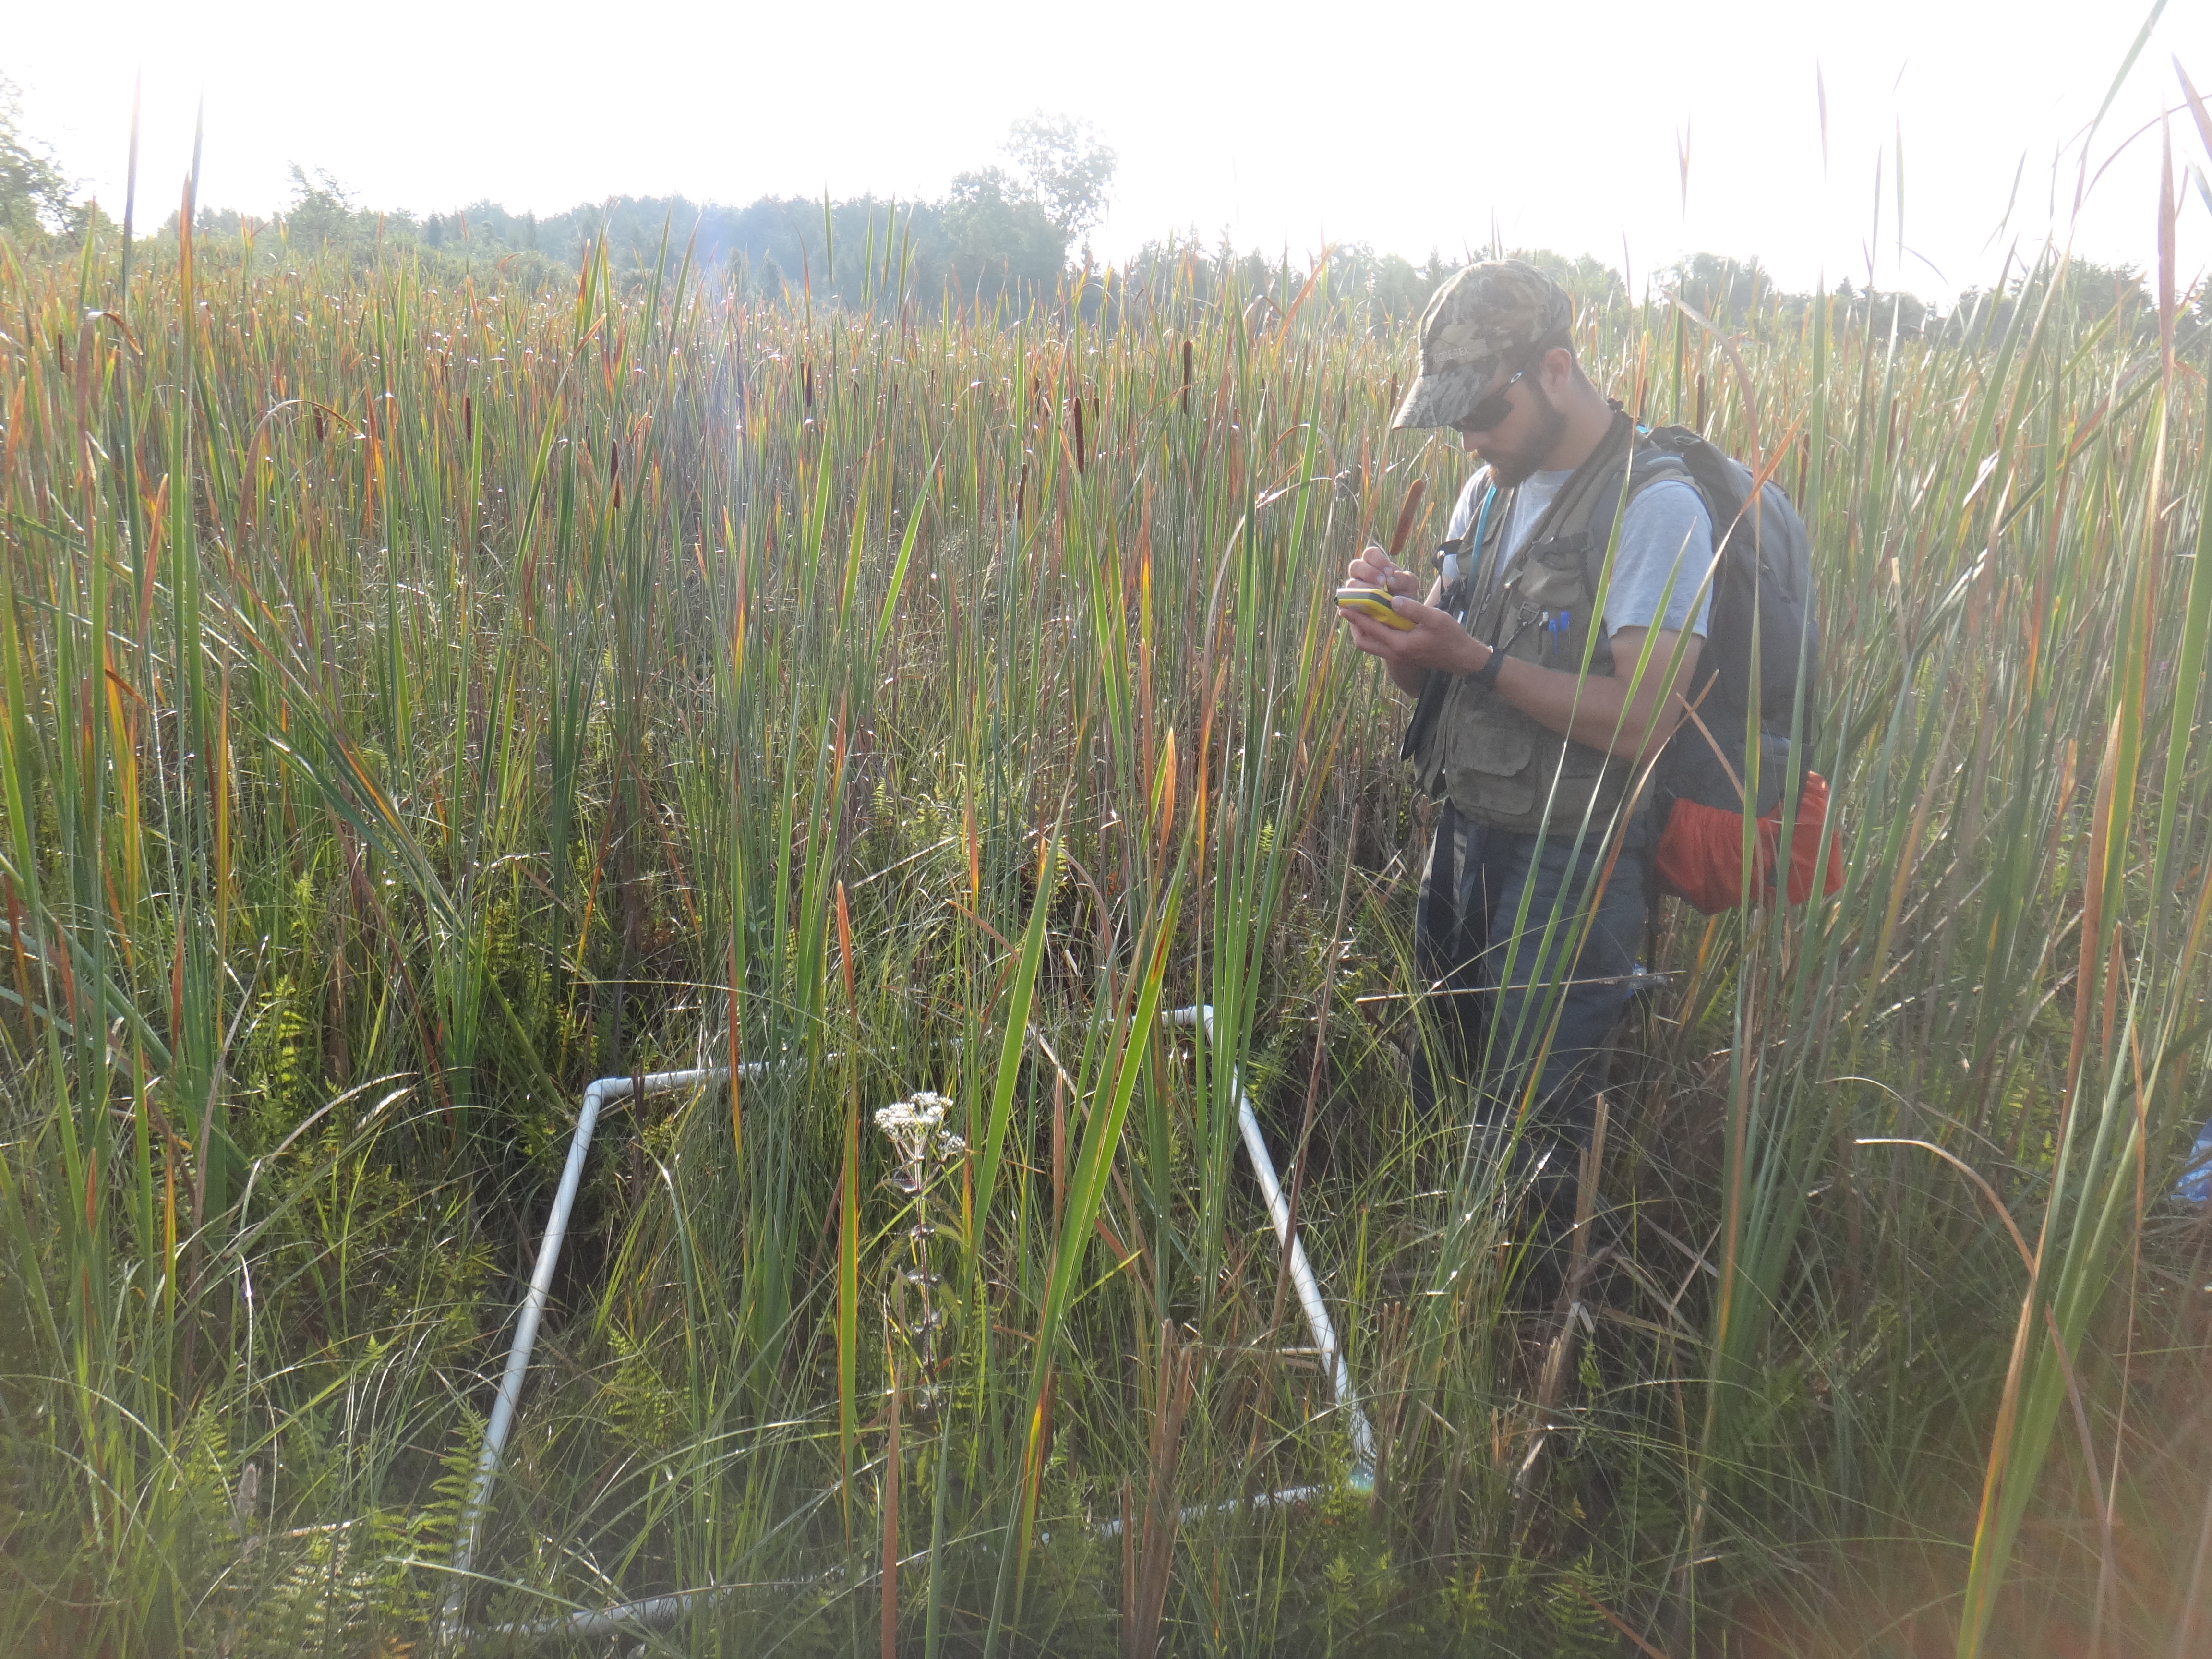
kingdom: Plantae
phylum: Tracheophyta
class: Liliopsida
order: Poales
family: Cyperaceae
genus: Carex
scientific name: Carex aquatilis
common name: Water sedge
